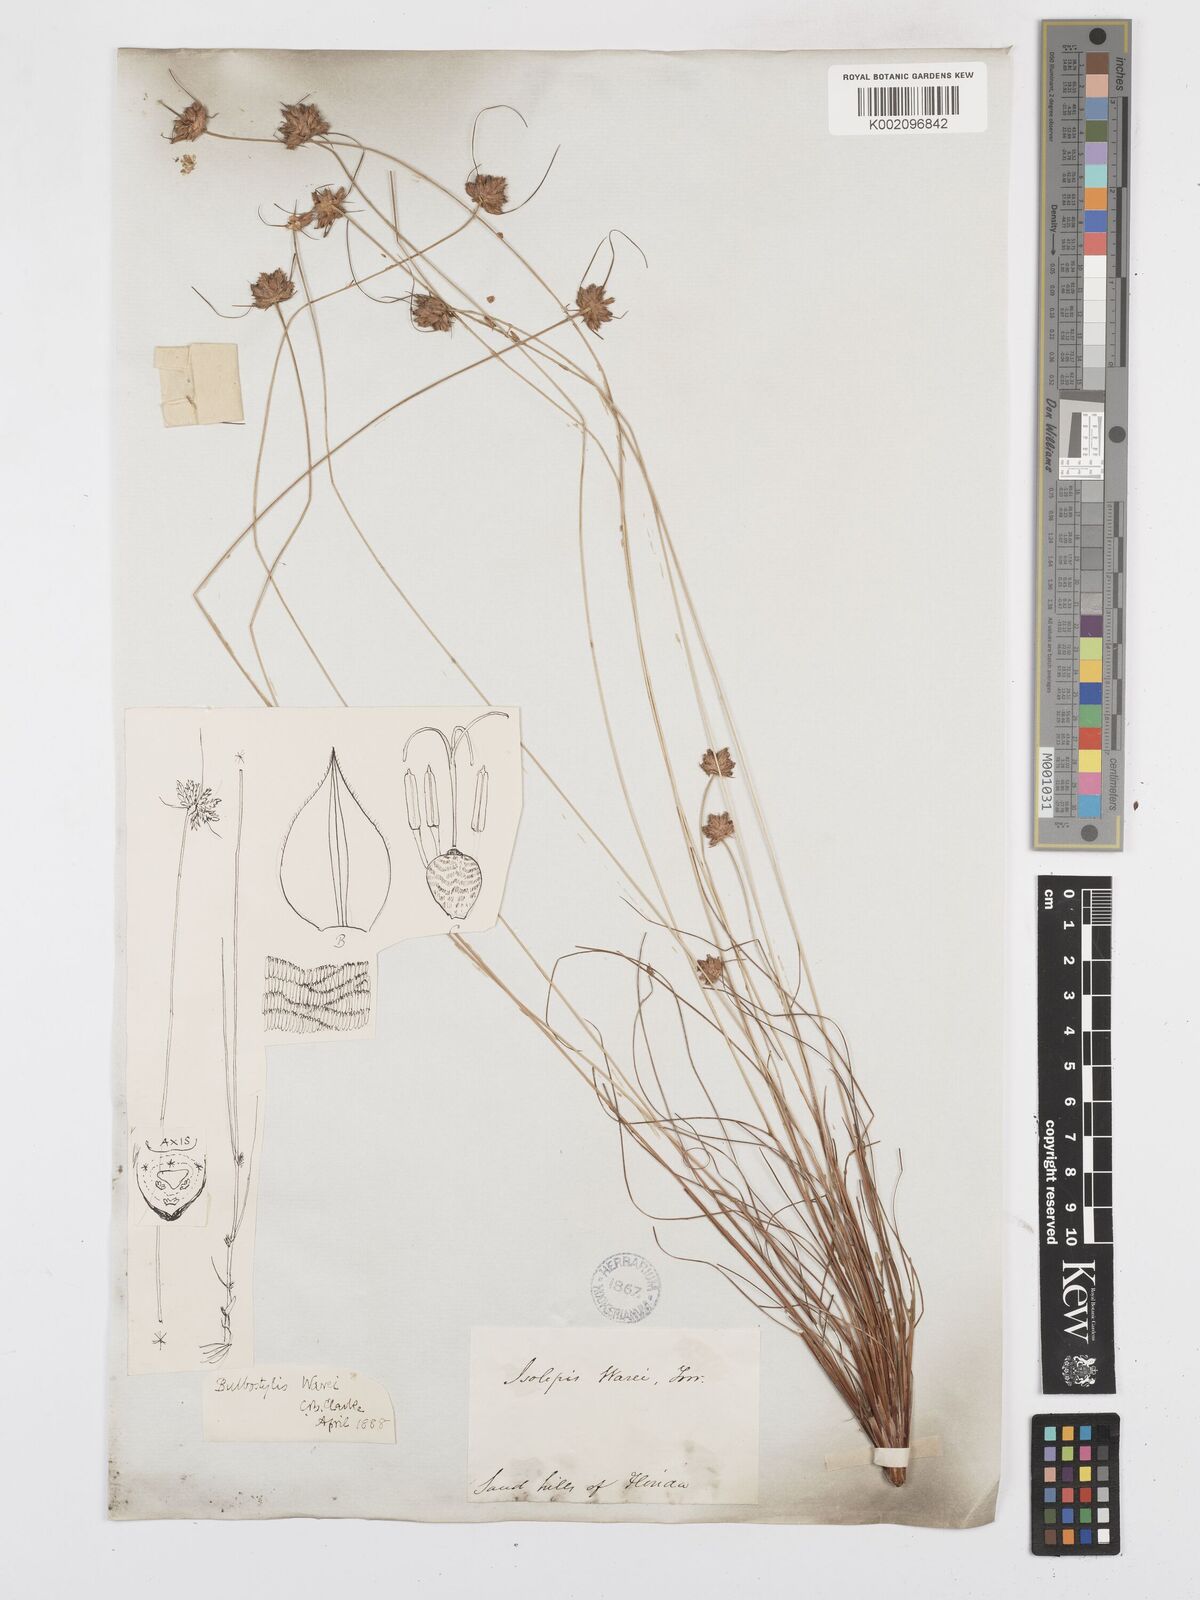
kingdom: Plantae
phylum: Tracheophyta
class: Liliopsida
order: Poales
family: Cyperaceae
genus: Bulbostylis
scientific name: Bulbostylis warei
